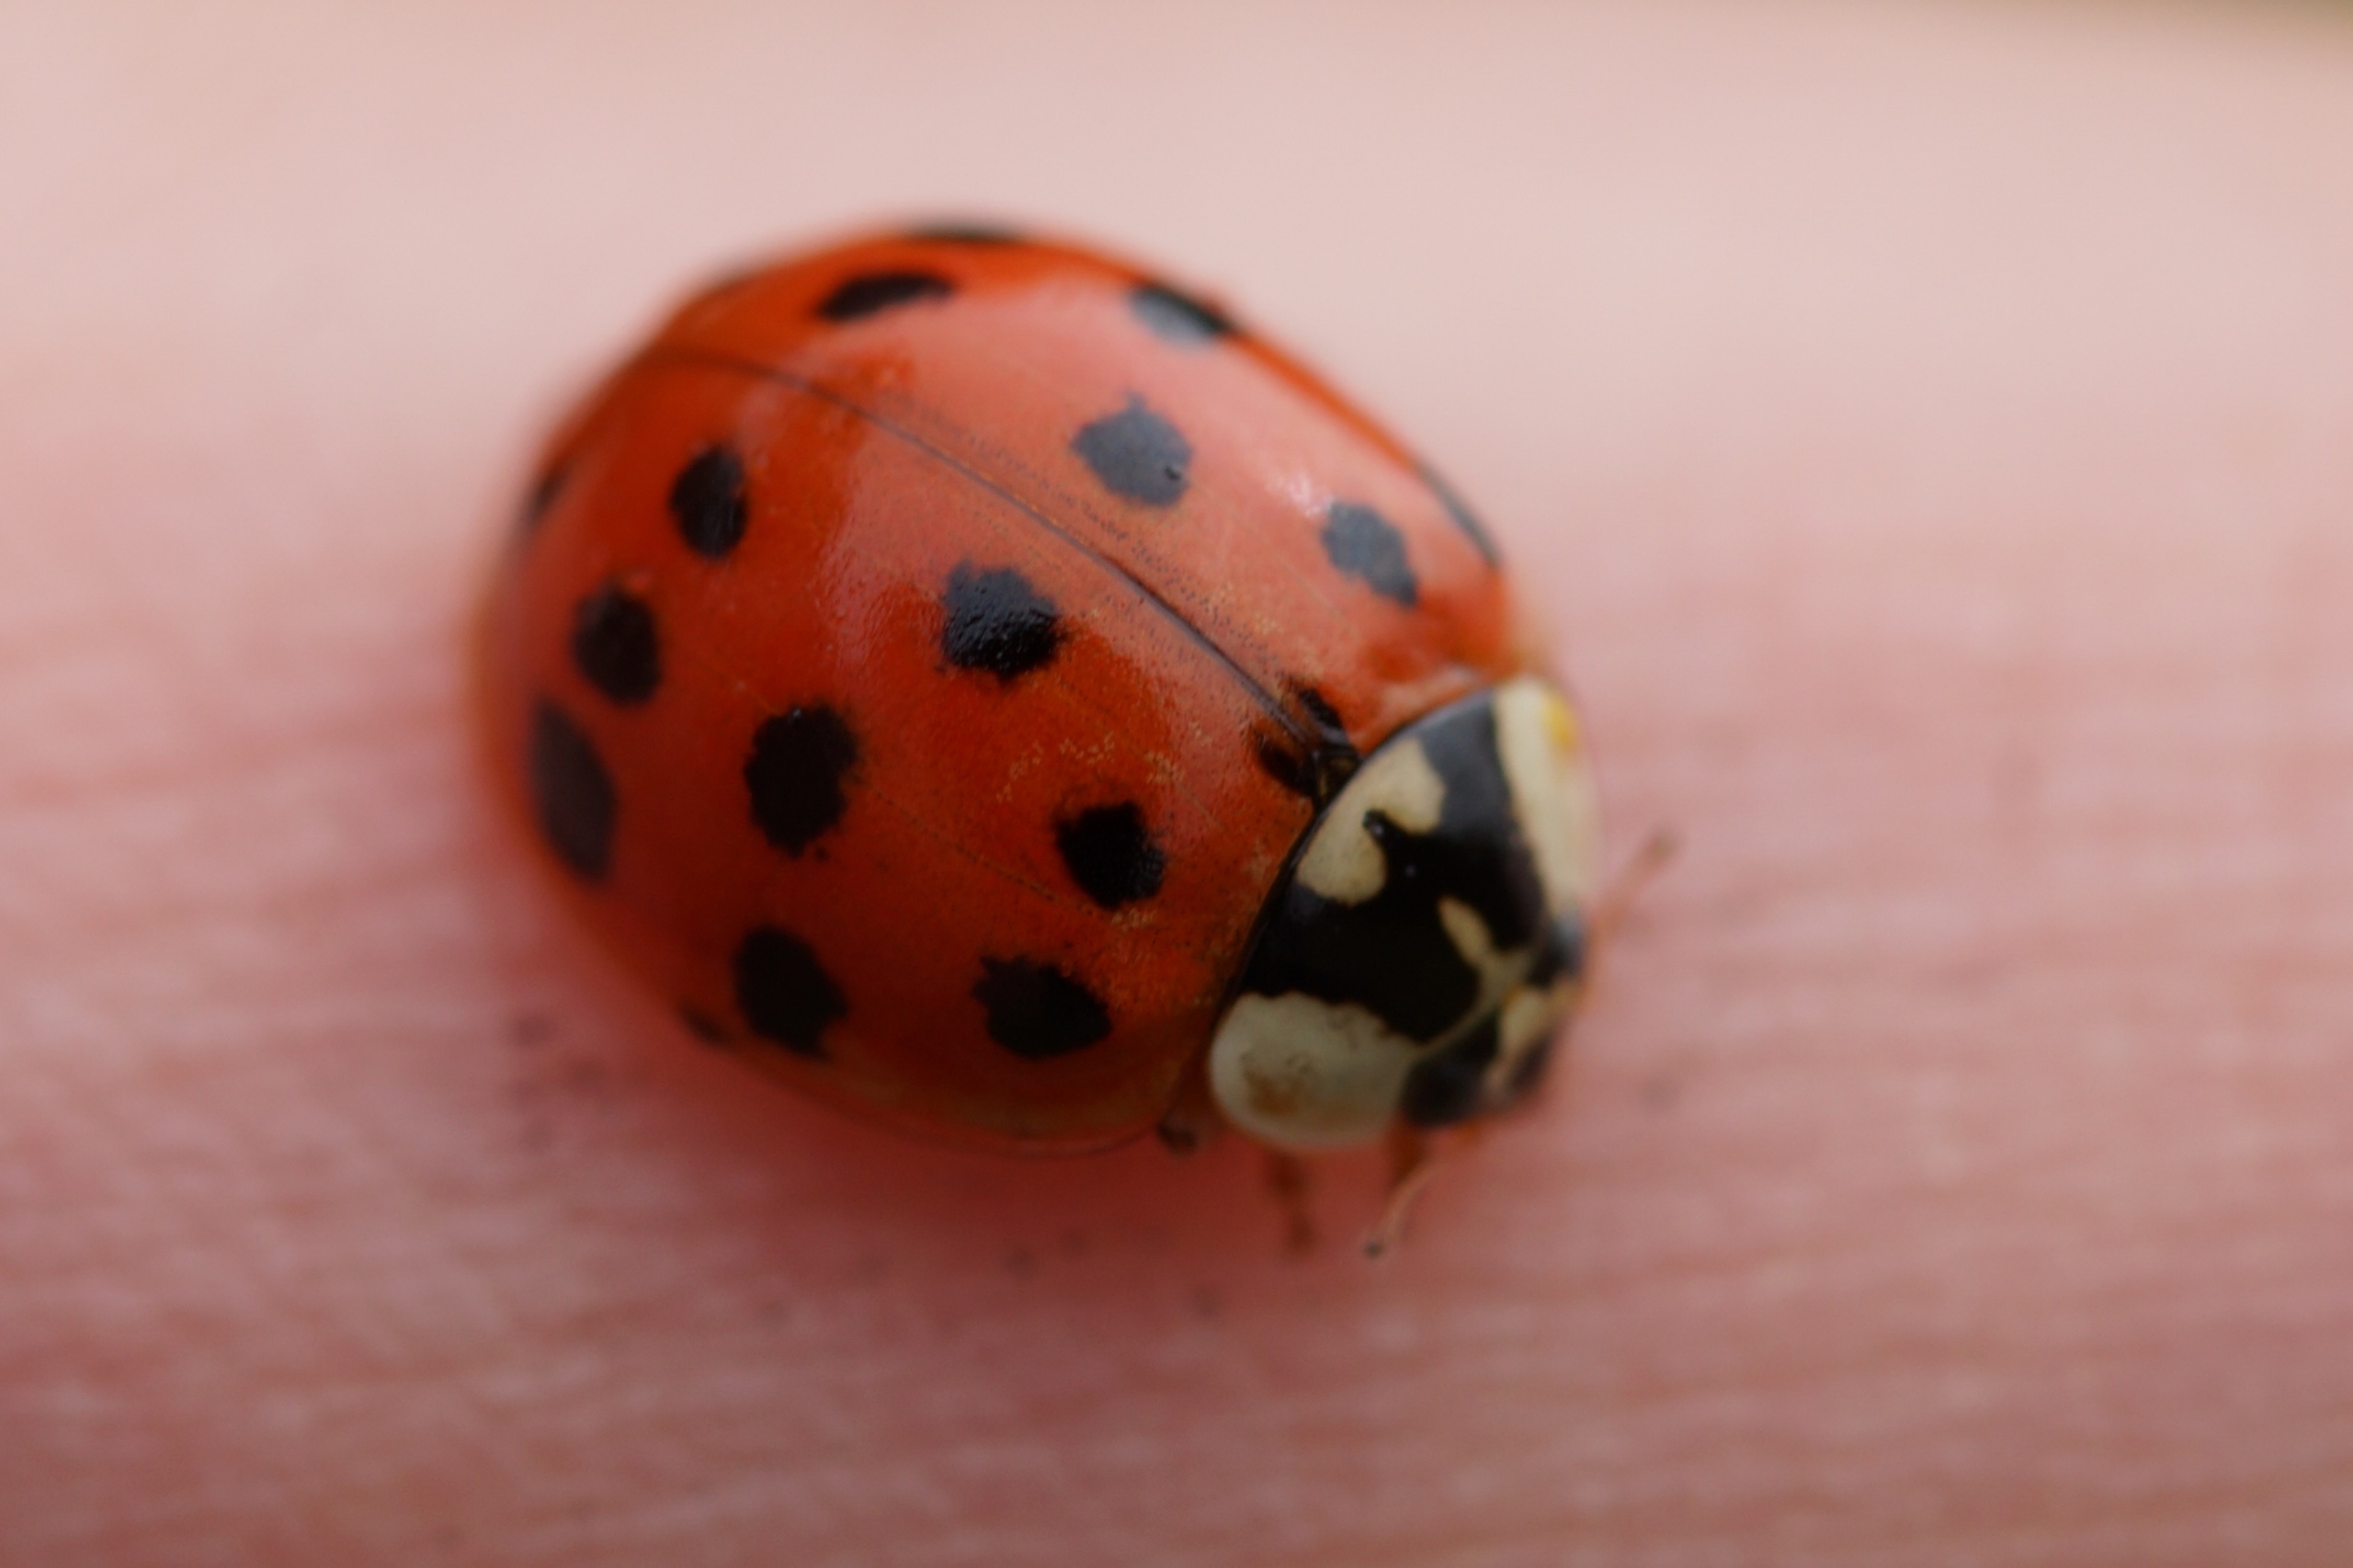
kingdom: Animalia
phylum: Arthropoda
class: Insecta
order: Coleoptera
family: Coccinellidae
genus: Harmonia
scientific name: Harmonia axyridis
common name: Harlekinmariehøne
